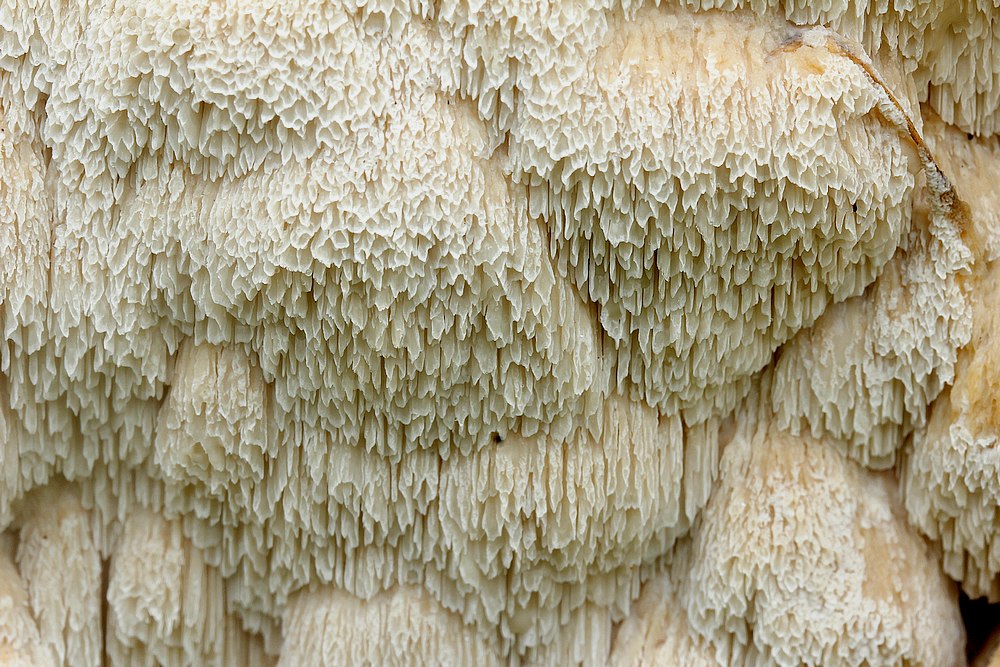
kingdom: Fungi
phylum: Basidiomycota
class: Agaricomycetes
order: Polyporales
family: Irpicaceae
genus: Irpex
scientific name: Irpex latemarginatus
